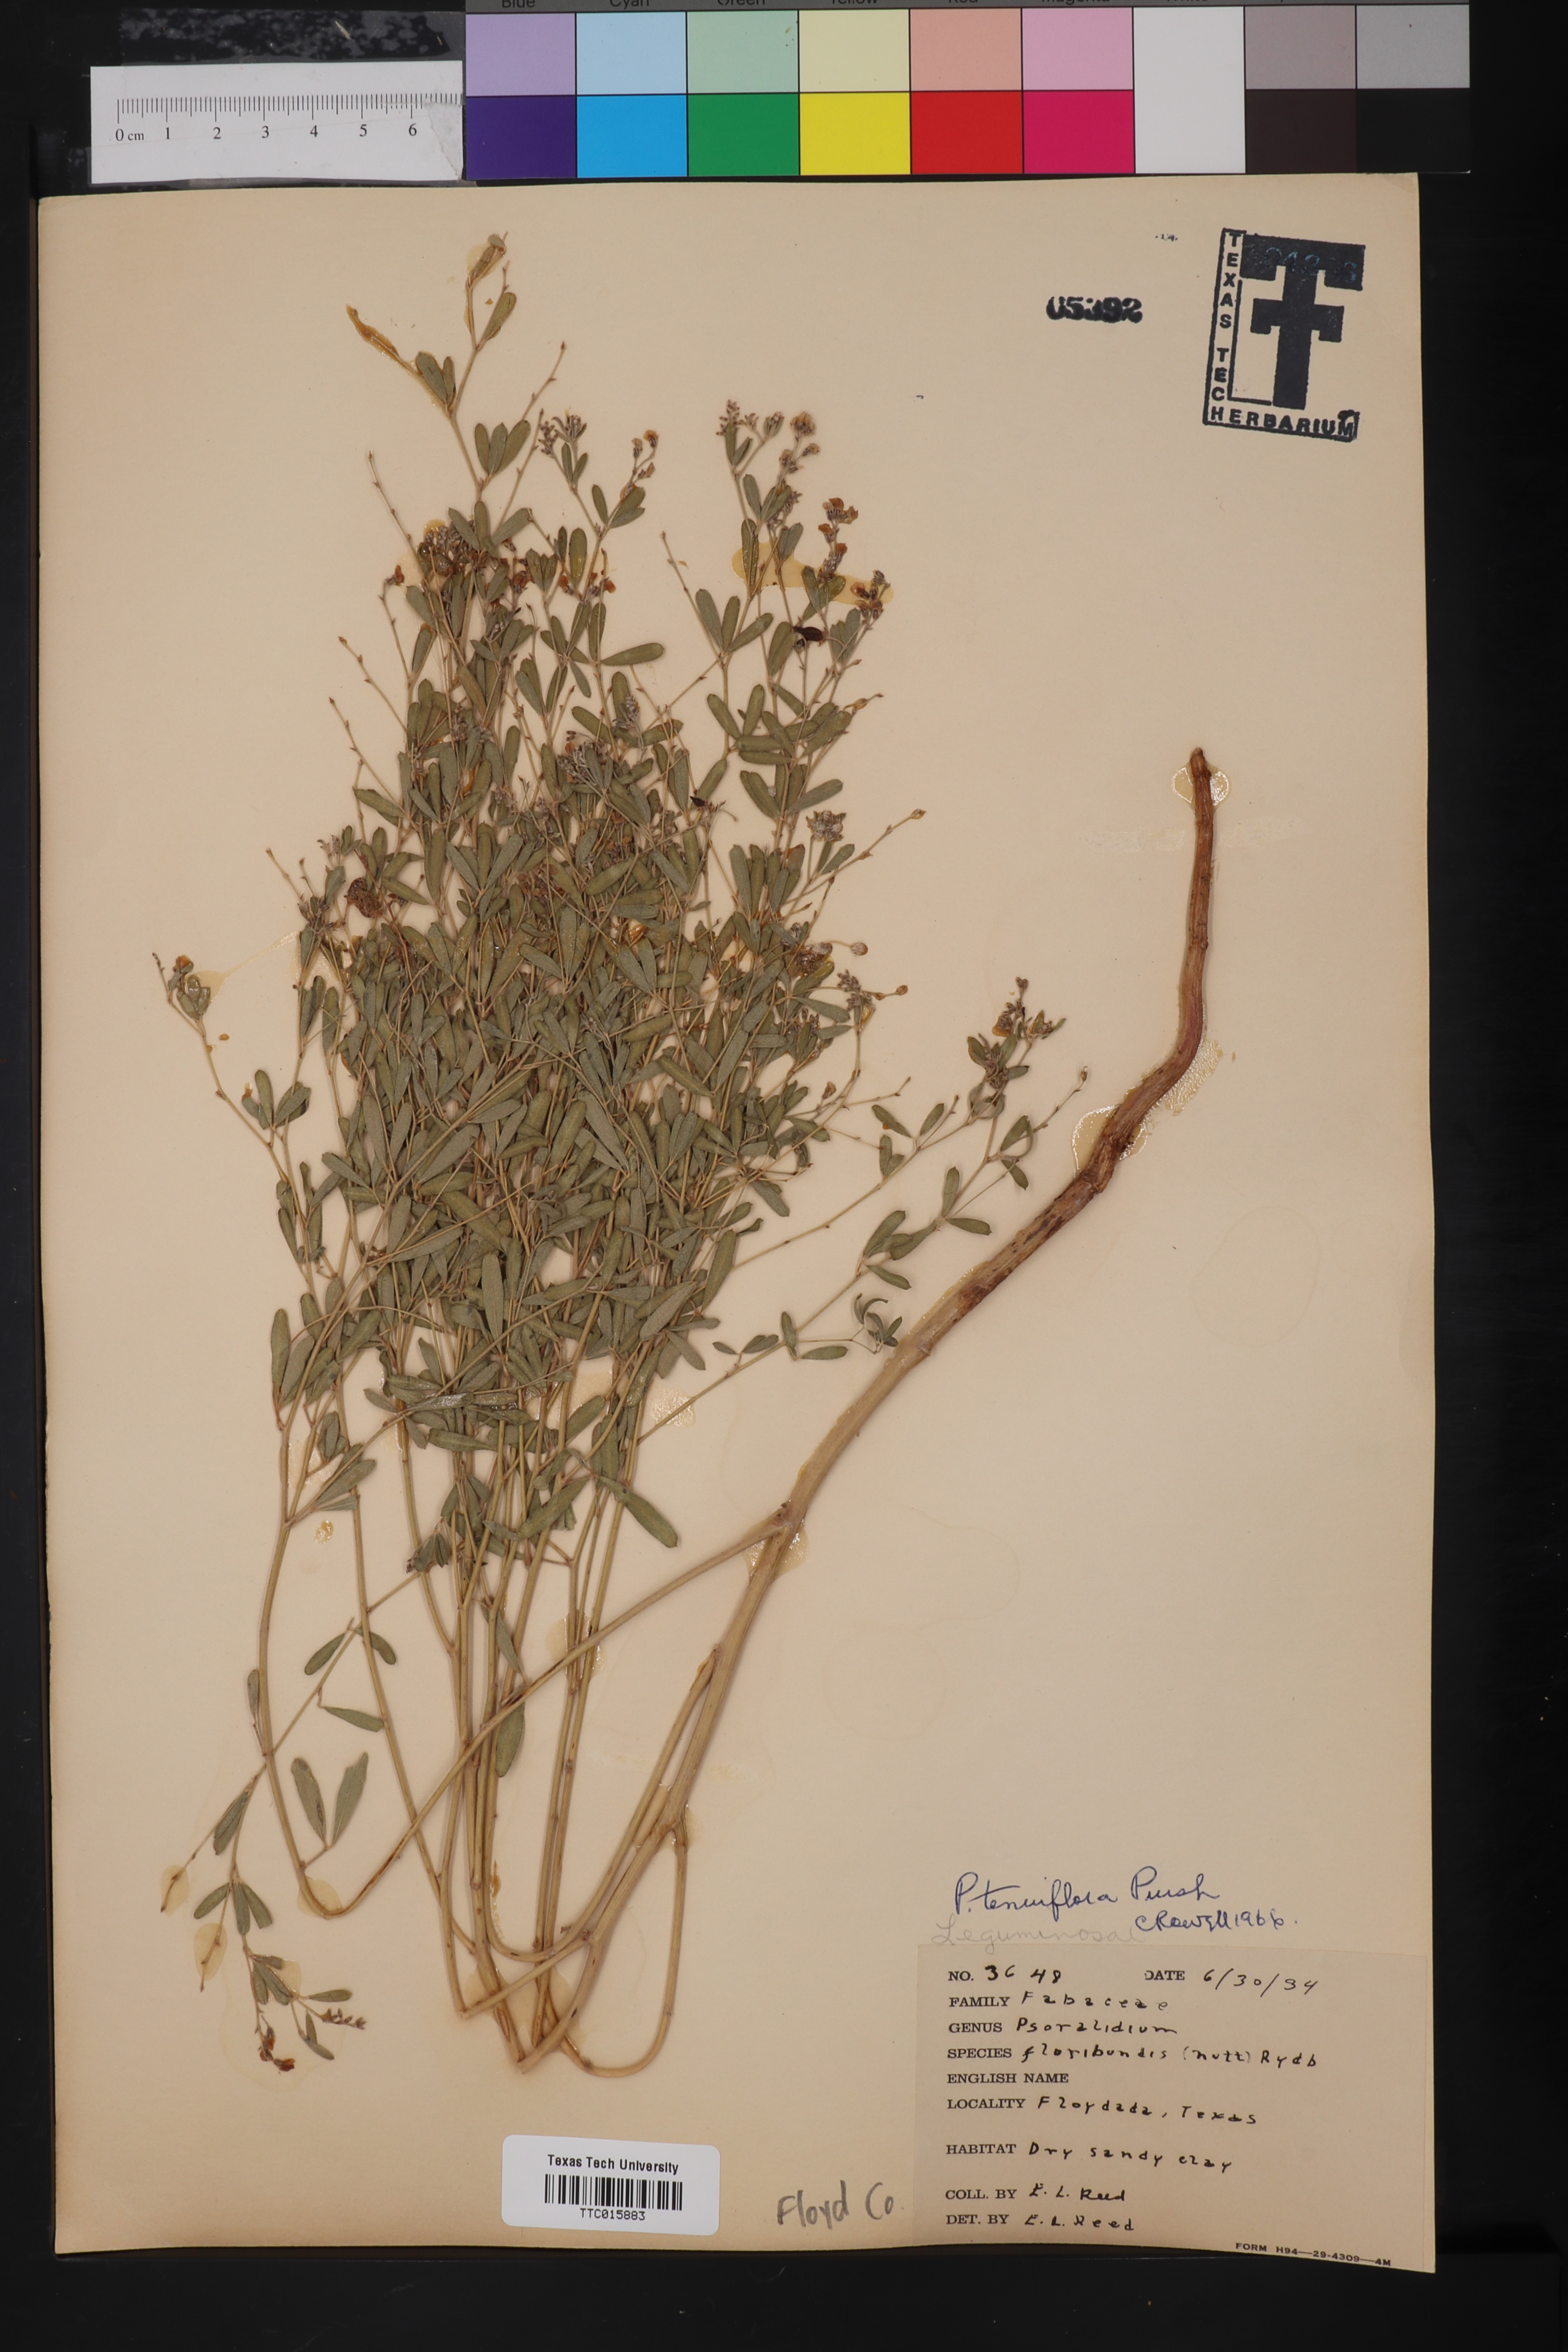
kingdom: Plantae
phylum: Tracheophyta
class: Magnoliopsida
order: Fabales
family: Fabaceae
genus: Pediomelum
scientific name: Pediomelum tenuiflorum
